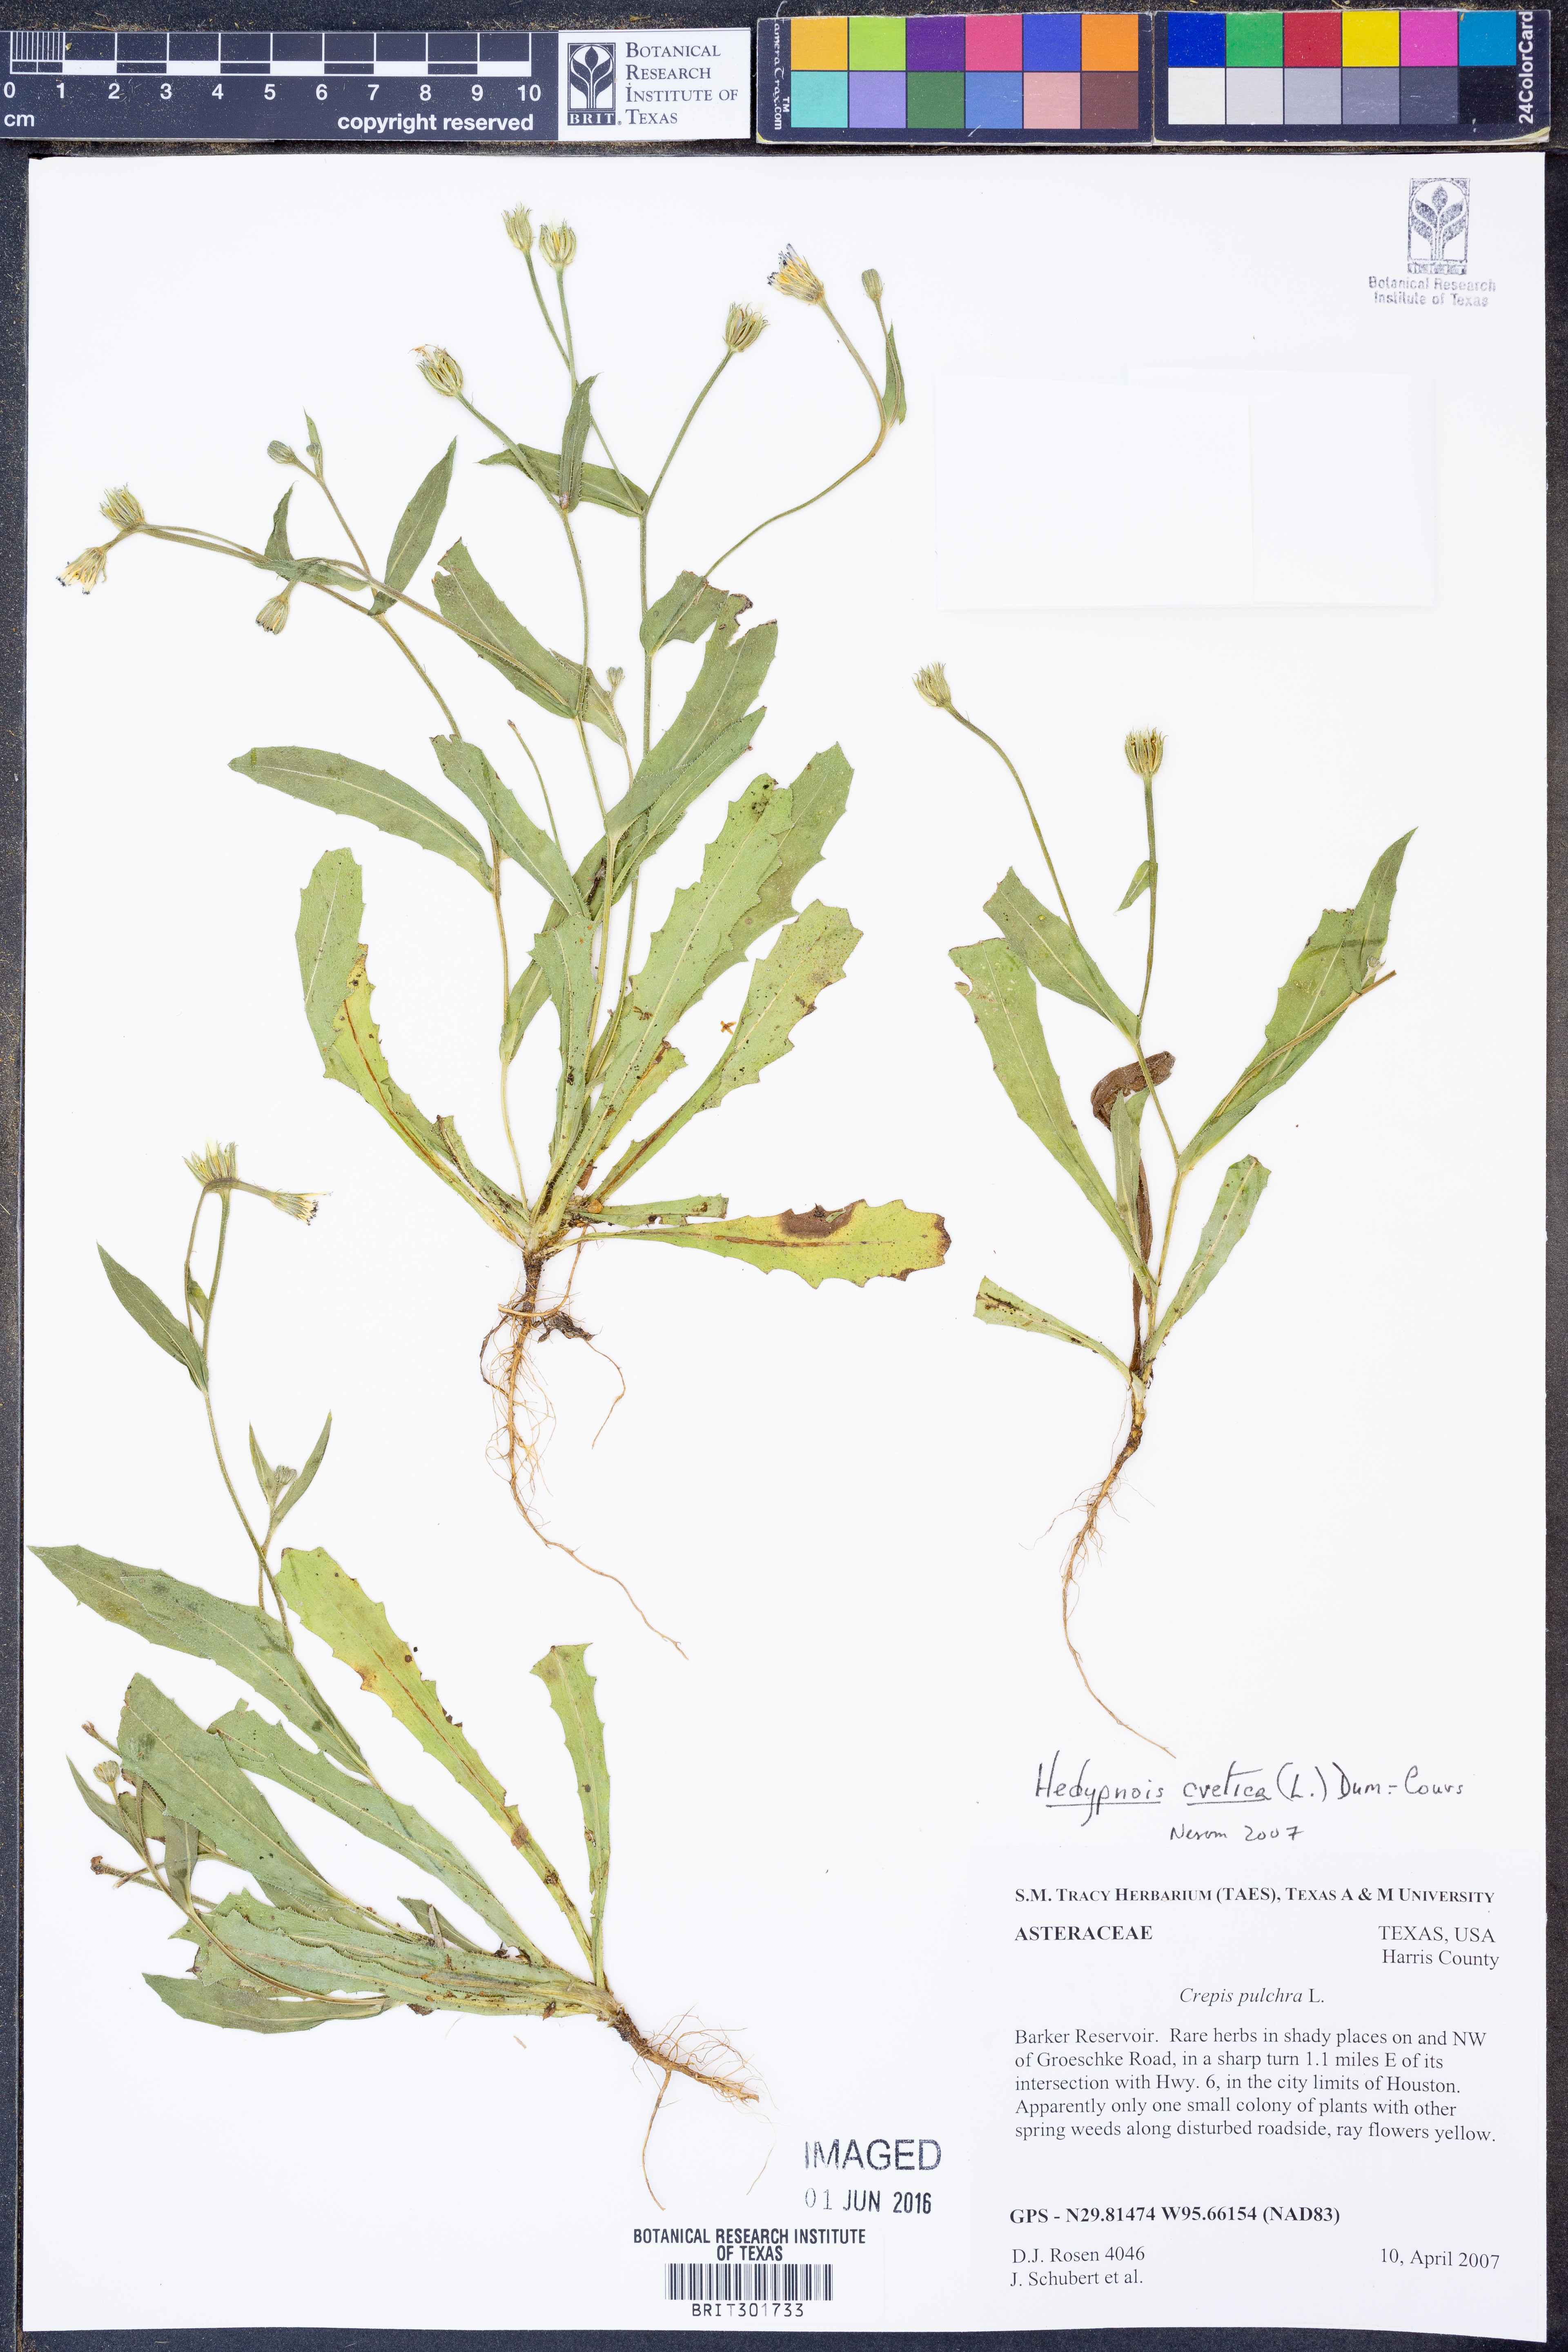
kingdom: Plantae
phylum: Tracheophyta
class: Magnoliopsida
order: Asterales
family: Asteraceae
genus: Hedypnois
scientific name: Hedypnois cretica
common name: Scaly hawkbit
